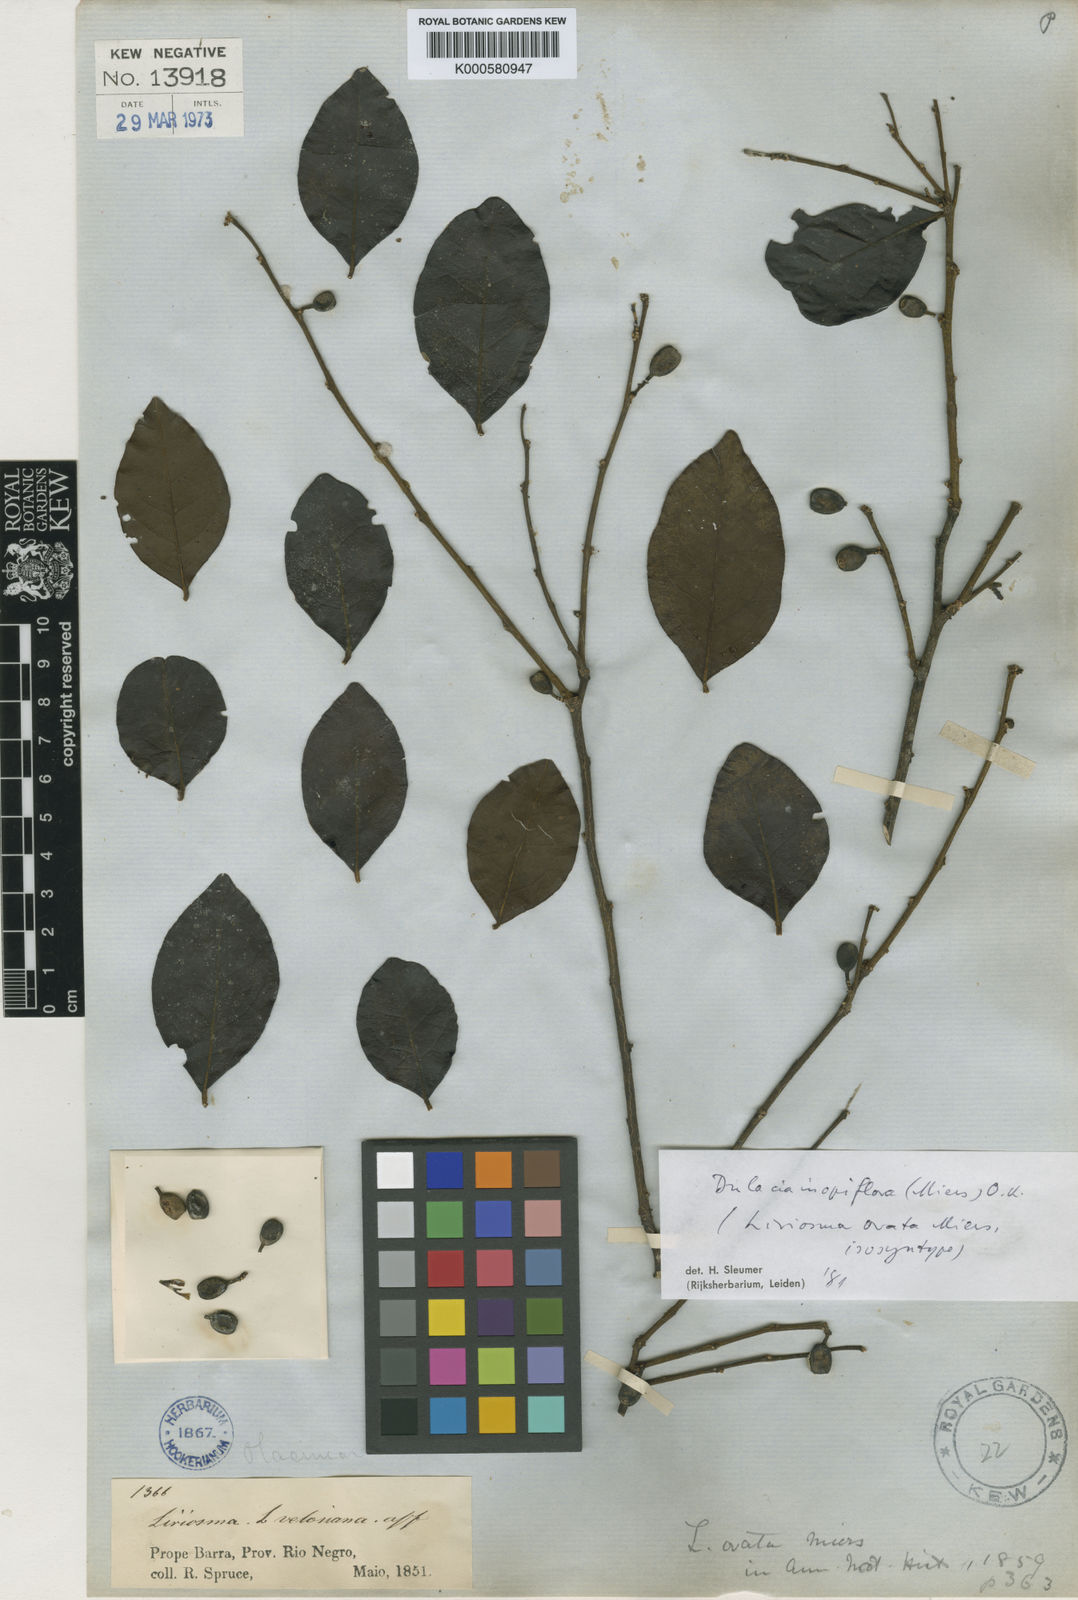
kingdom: Plantae
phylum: Tracheophyta
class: Magnoliopsida
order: Santalales
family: Olacaceae
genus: Dulacia
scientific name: Dulacia inopiflora
